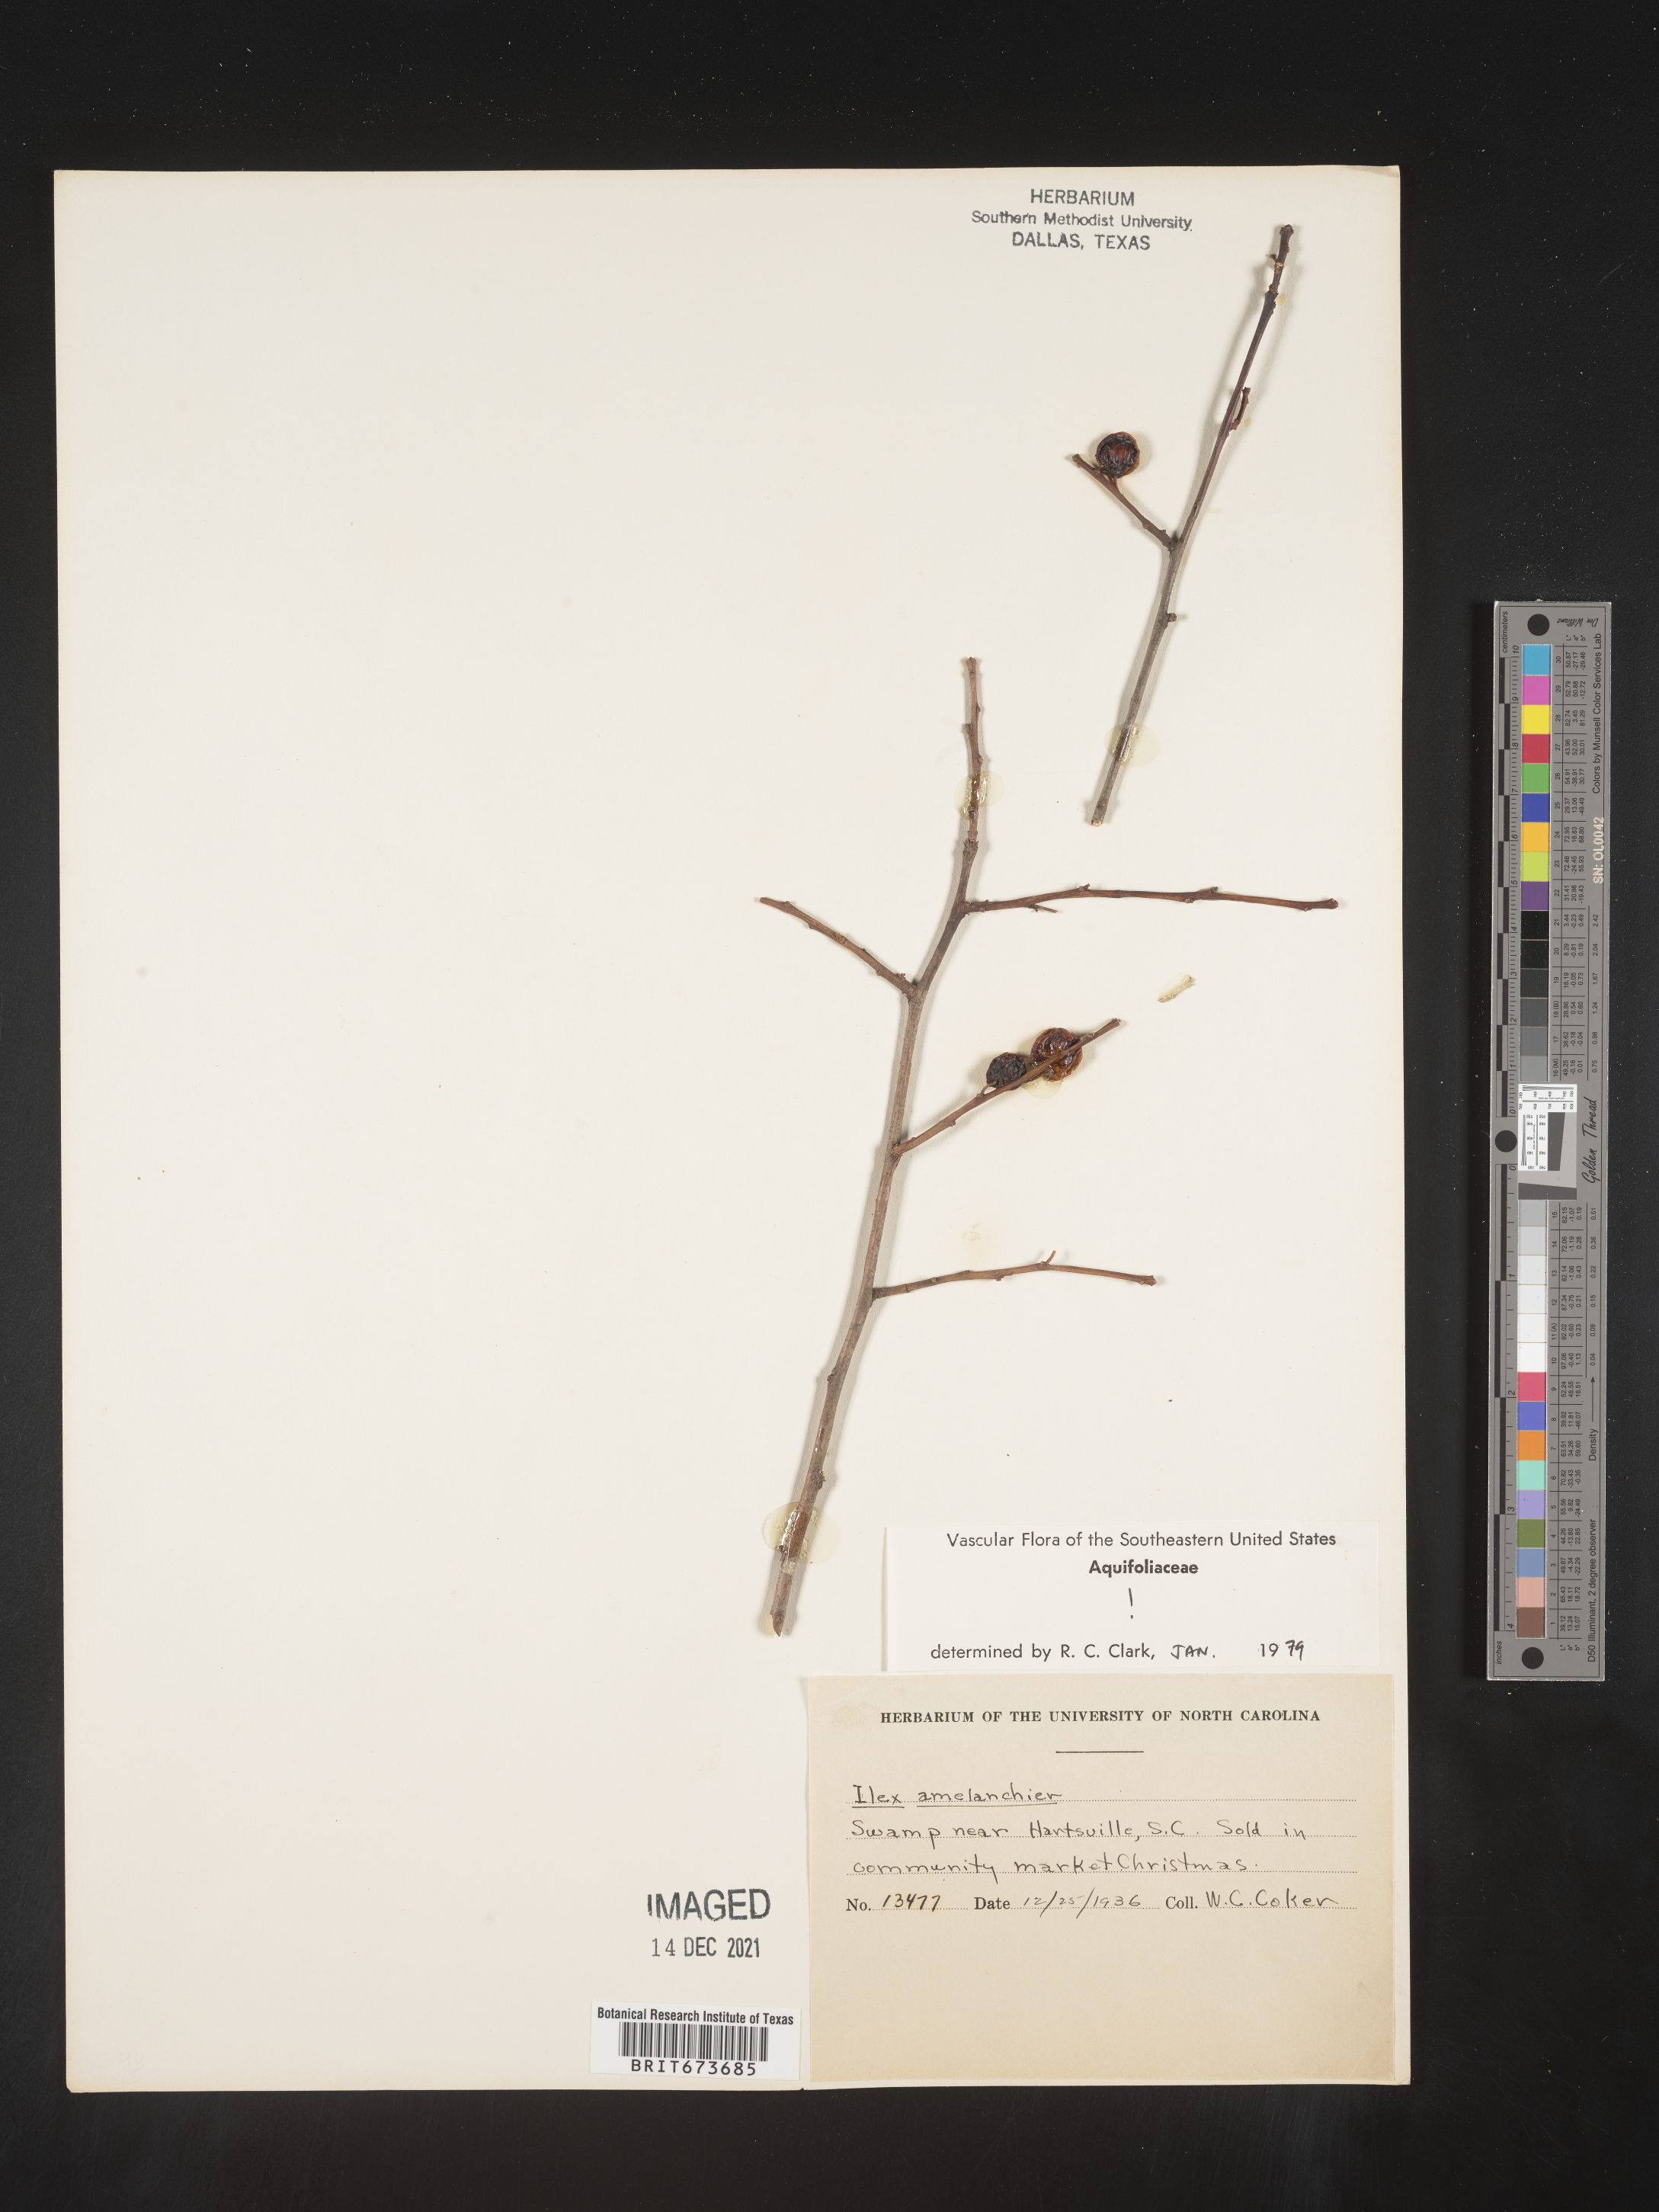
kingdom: Plantae
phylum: Tracheophyta
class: Magnoliopsida
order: Aquifoliales
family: Aquifoliaceae
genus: Ilex
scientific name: Ilex amelanchier
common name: Sarvis holly
